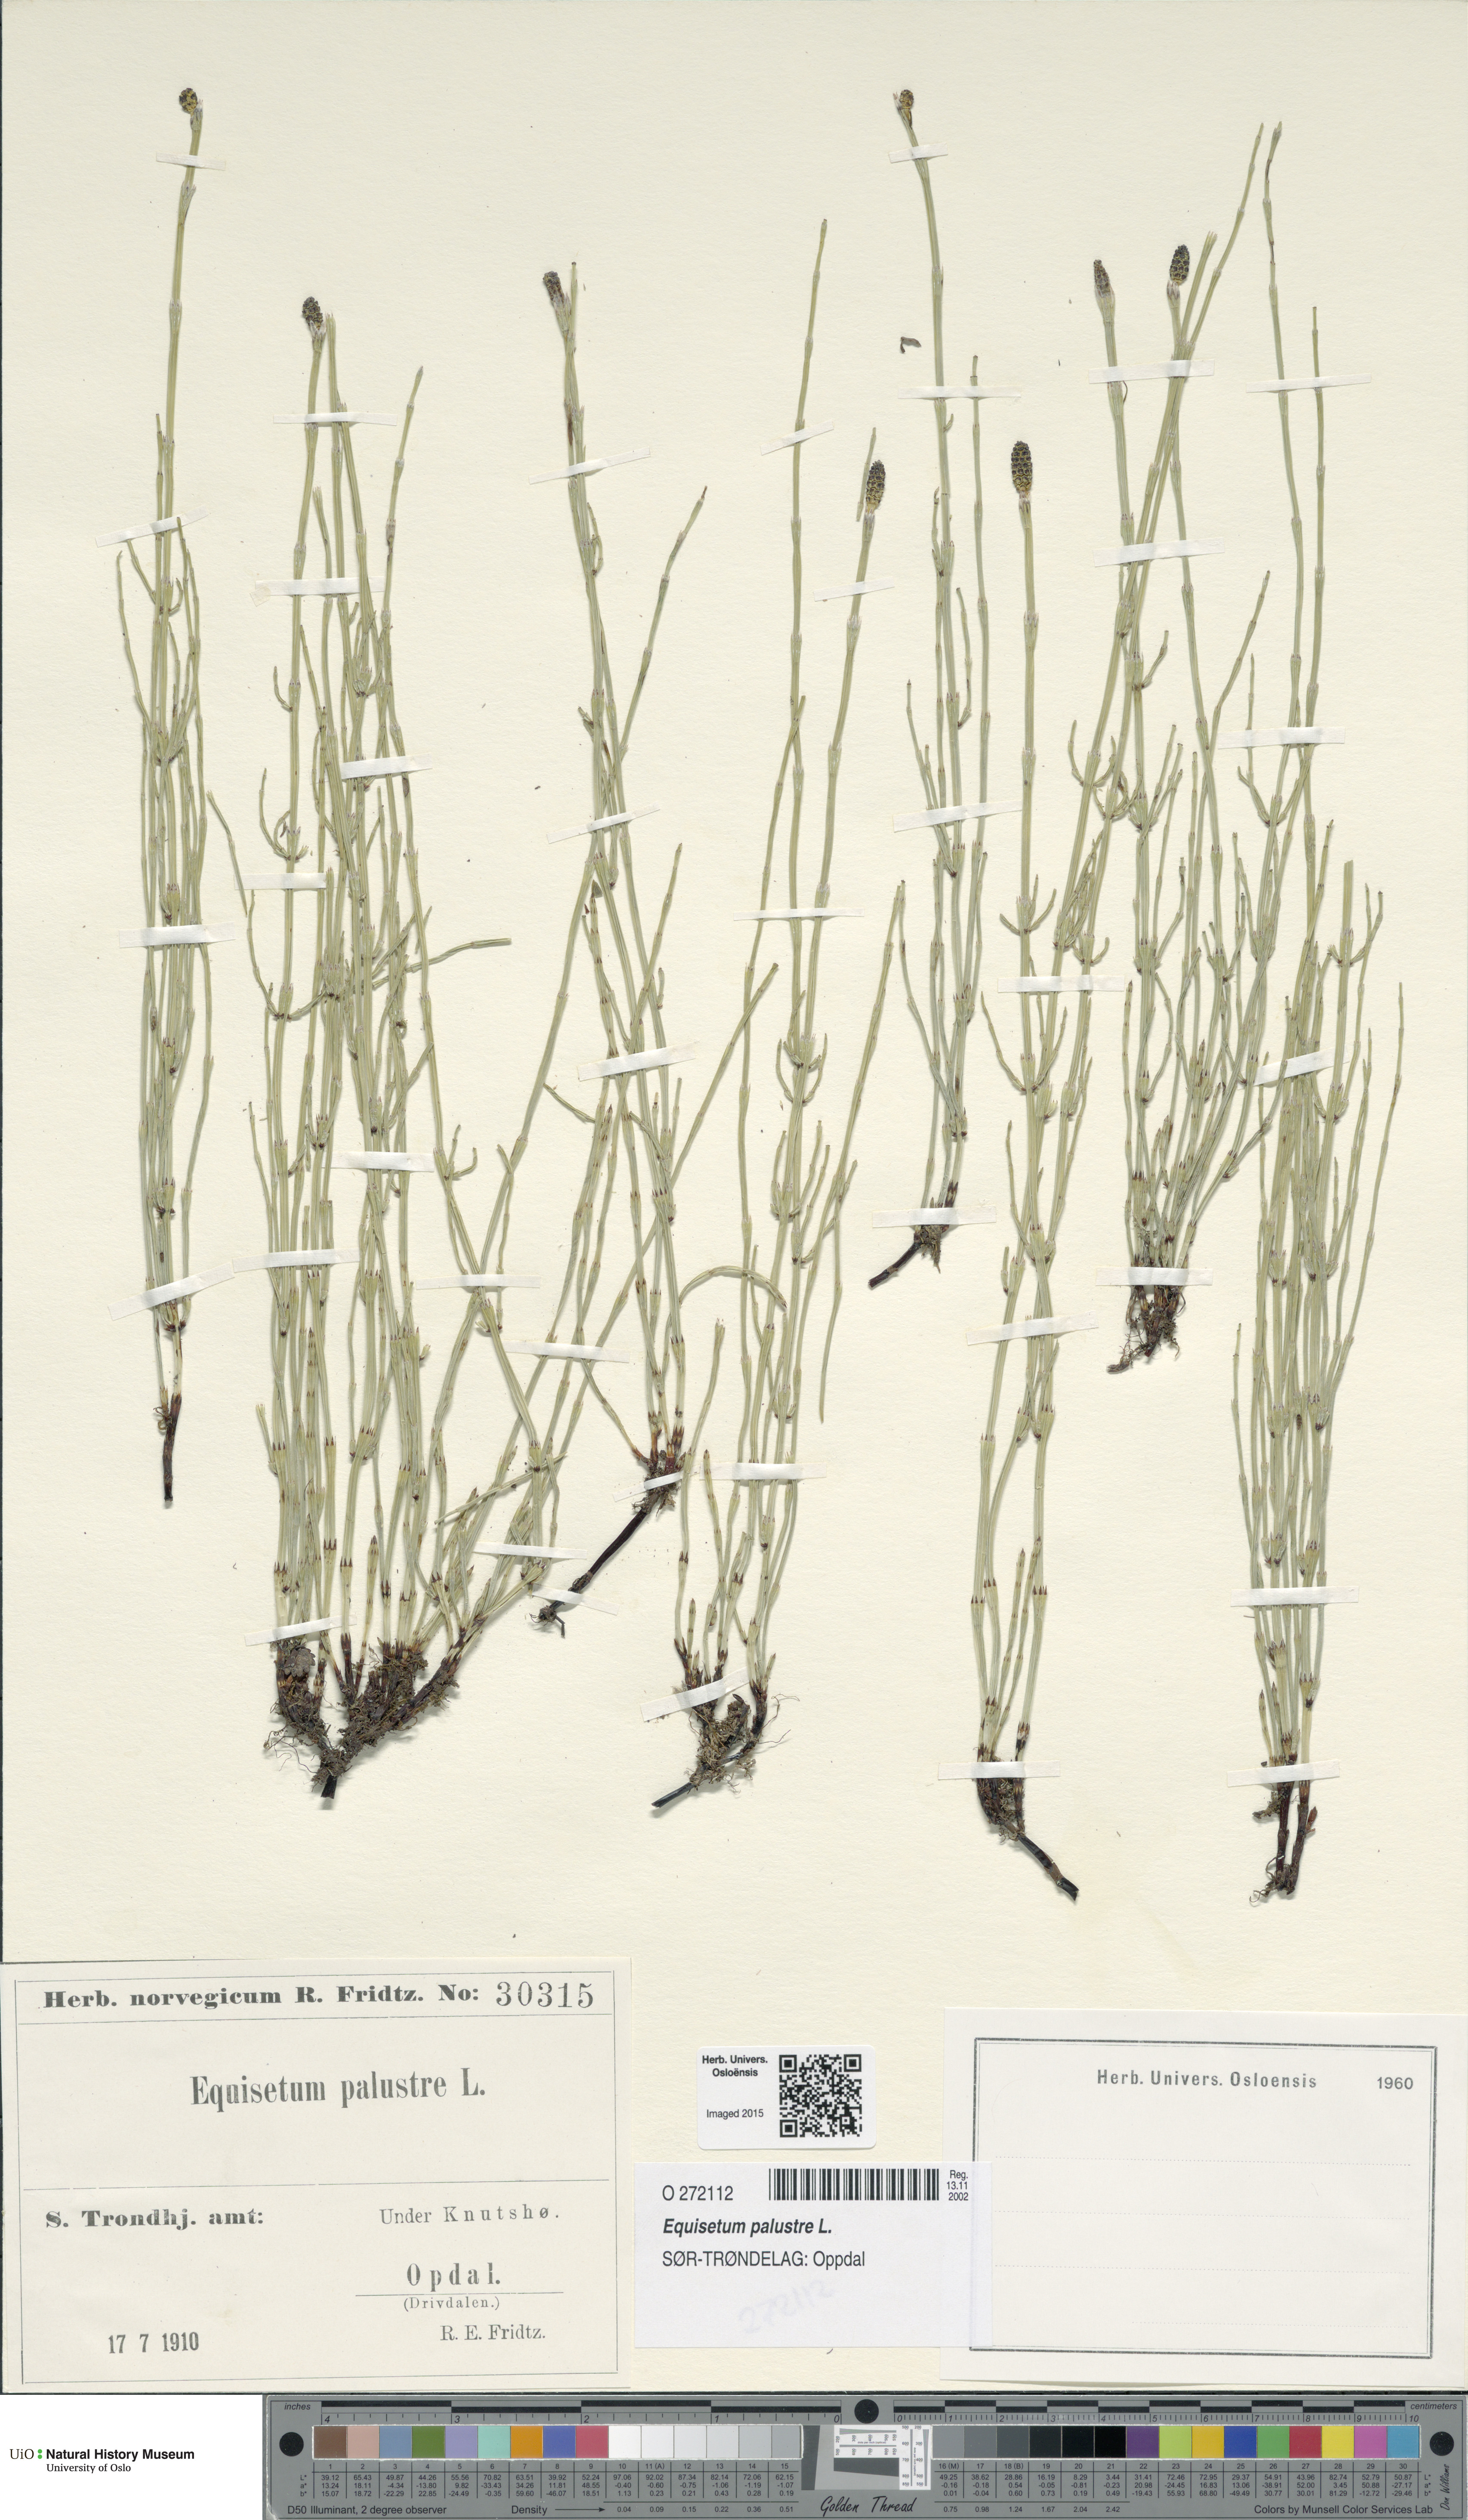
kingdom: Plantae
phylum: Tracheophyta
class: Polypodiopsida
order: Equisetales
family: Equisetaceae
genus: Equisetum
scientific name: Equisetum palustre
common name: Marsh horsetail
